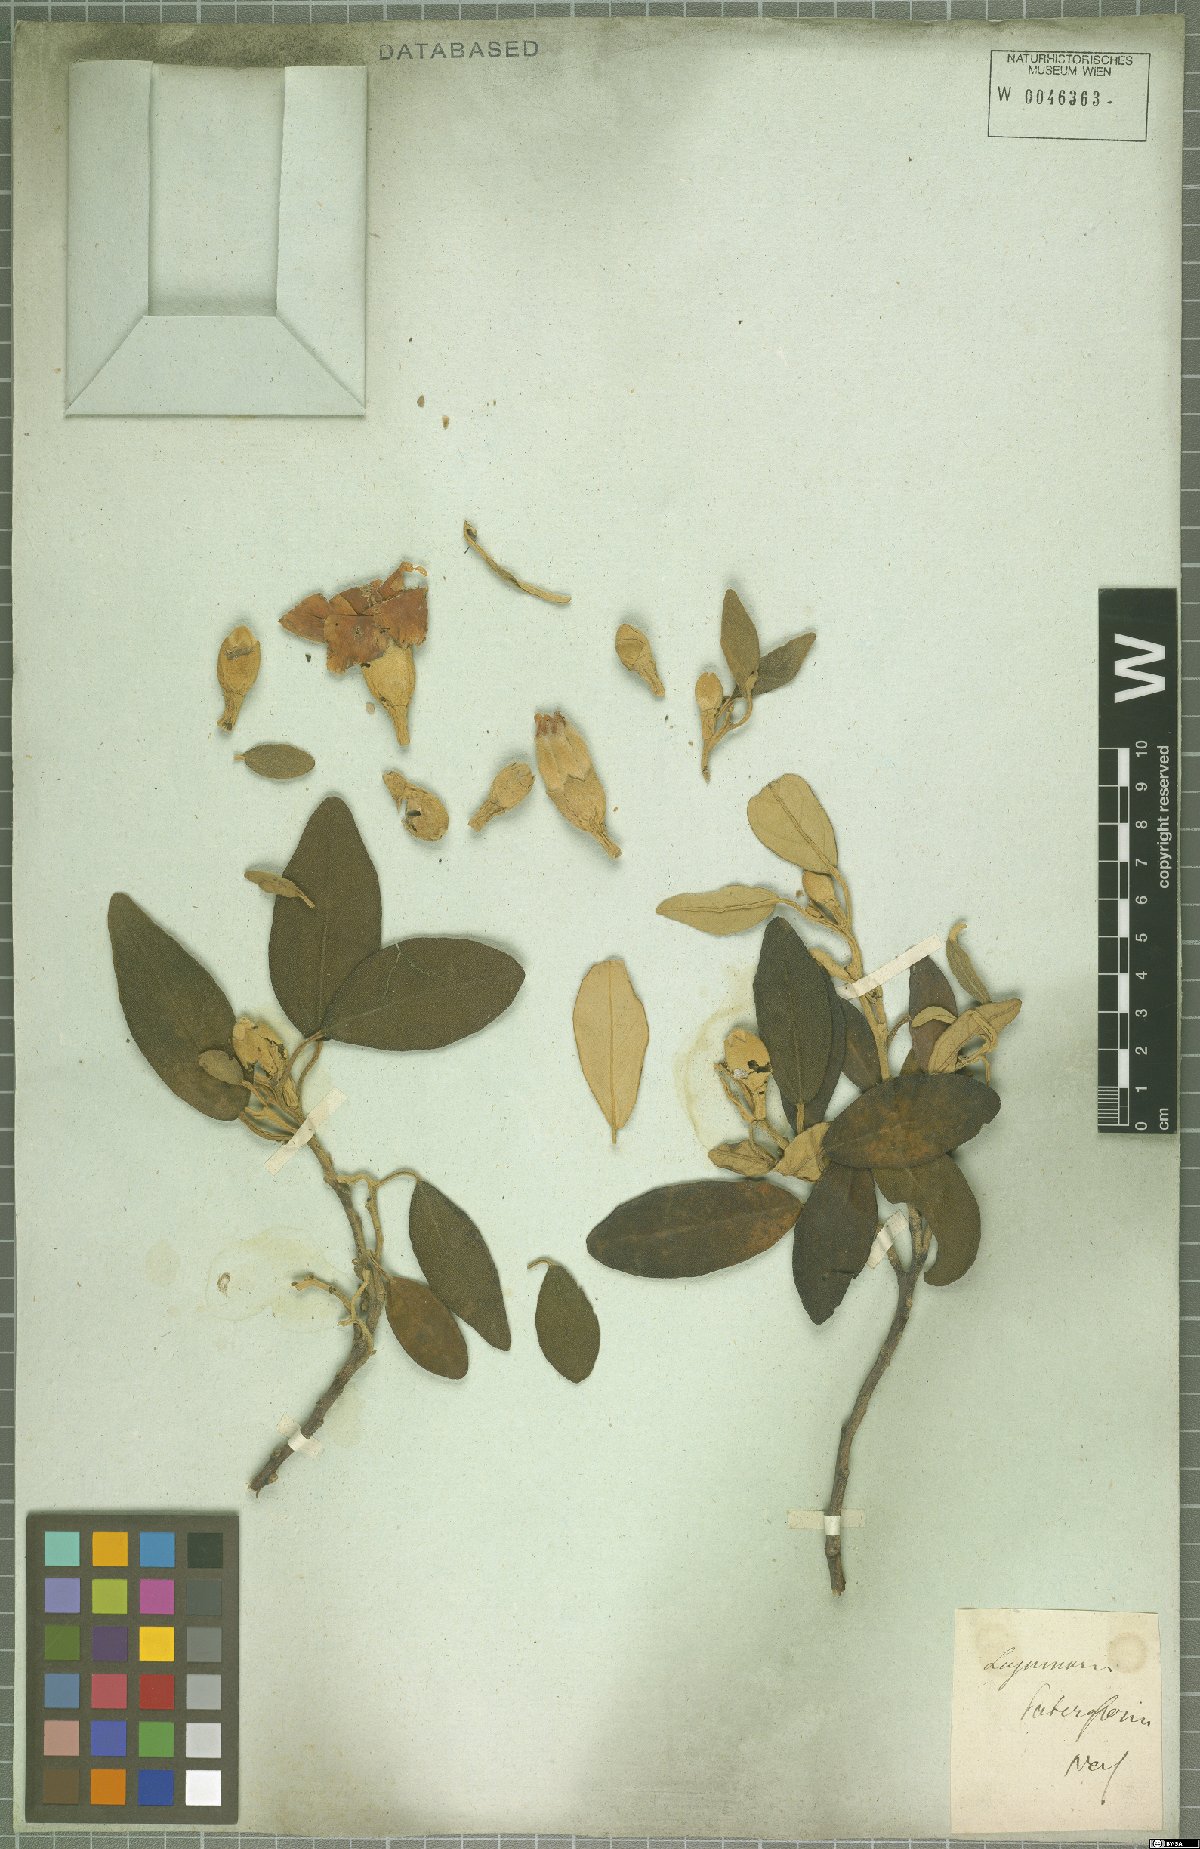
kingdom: Plantae
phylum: Tracheophyta
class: Magnoliopsida
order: Malvales
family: Malvaceae
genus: Lagunaria
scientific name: Lagunaria patersonia
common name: Cow itch tree
